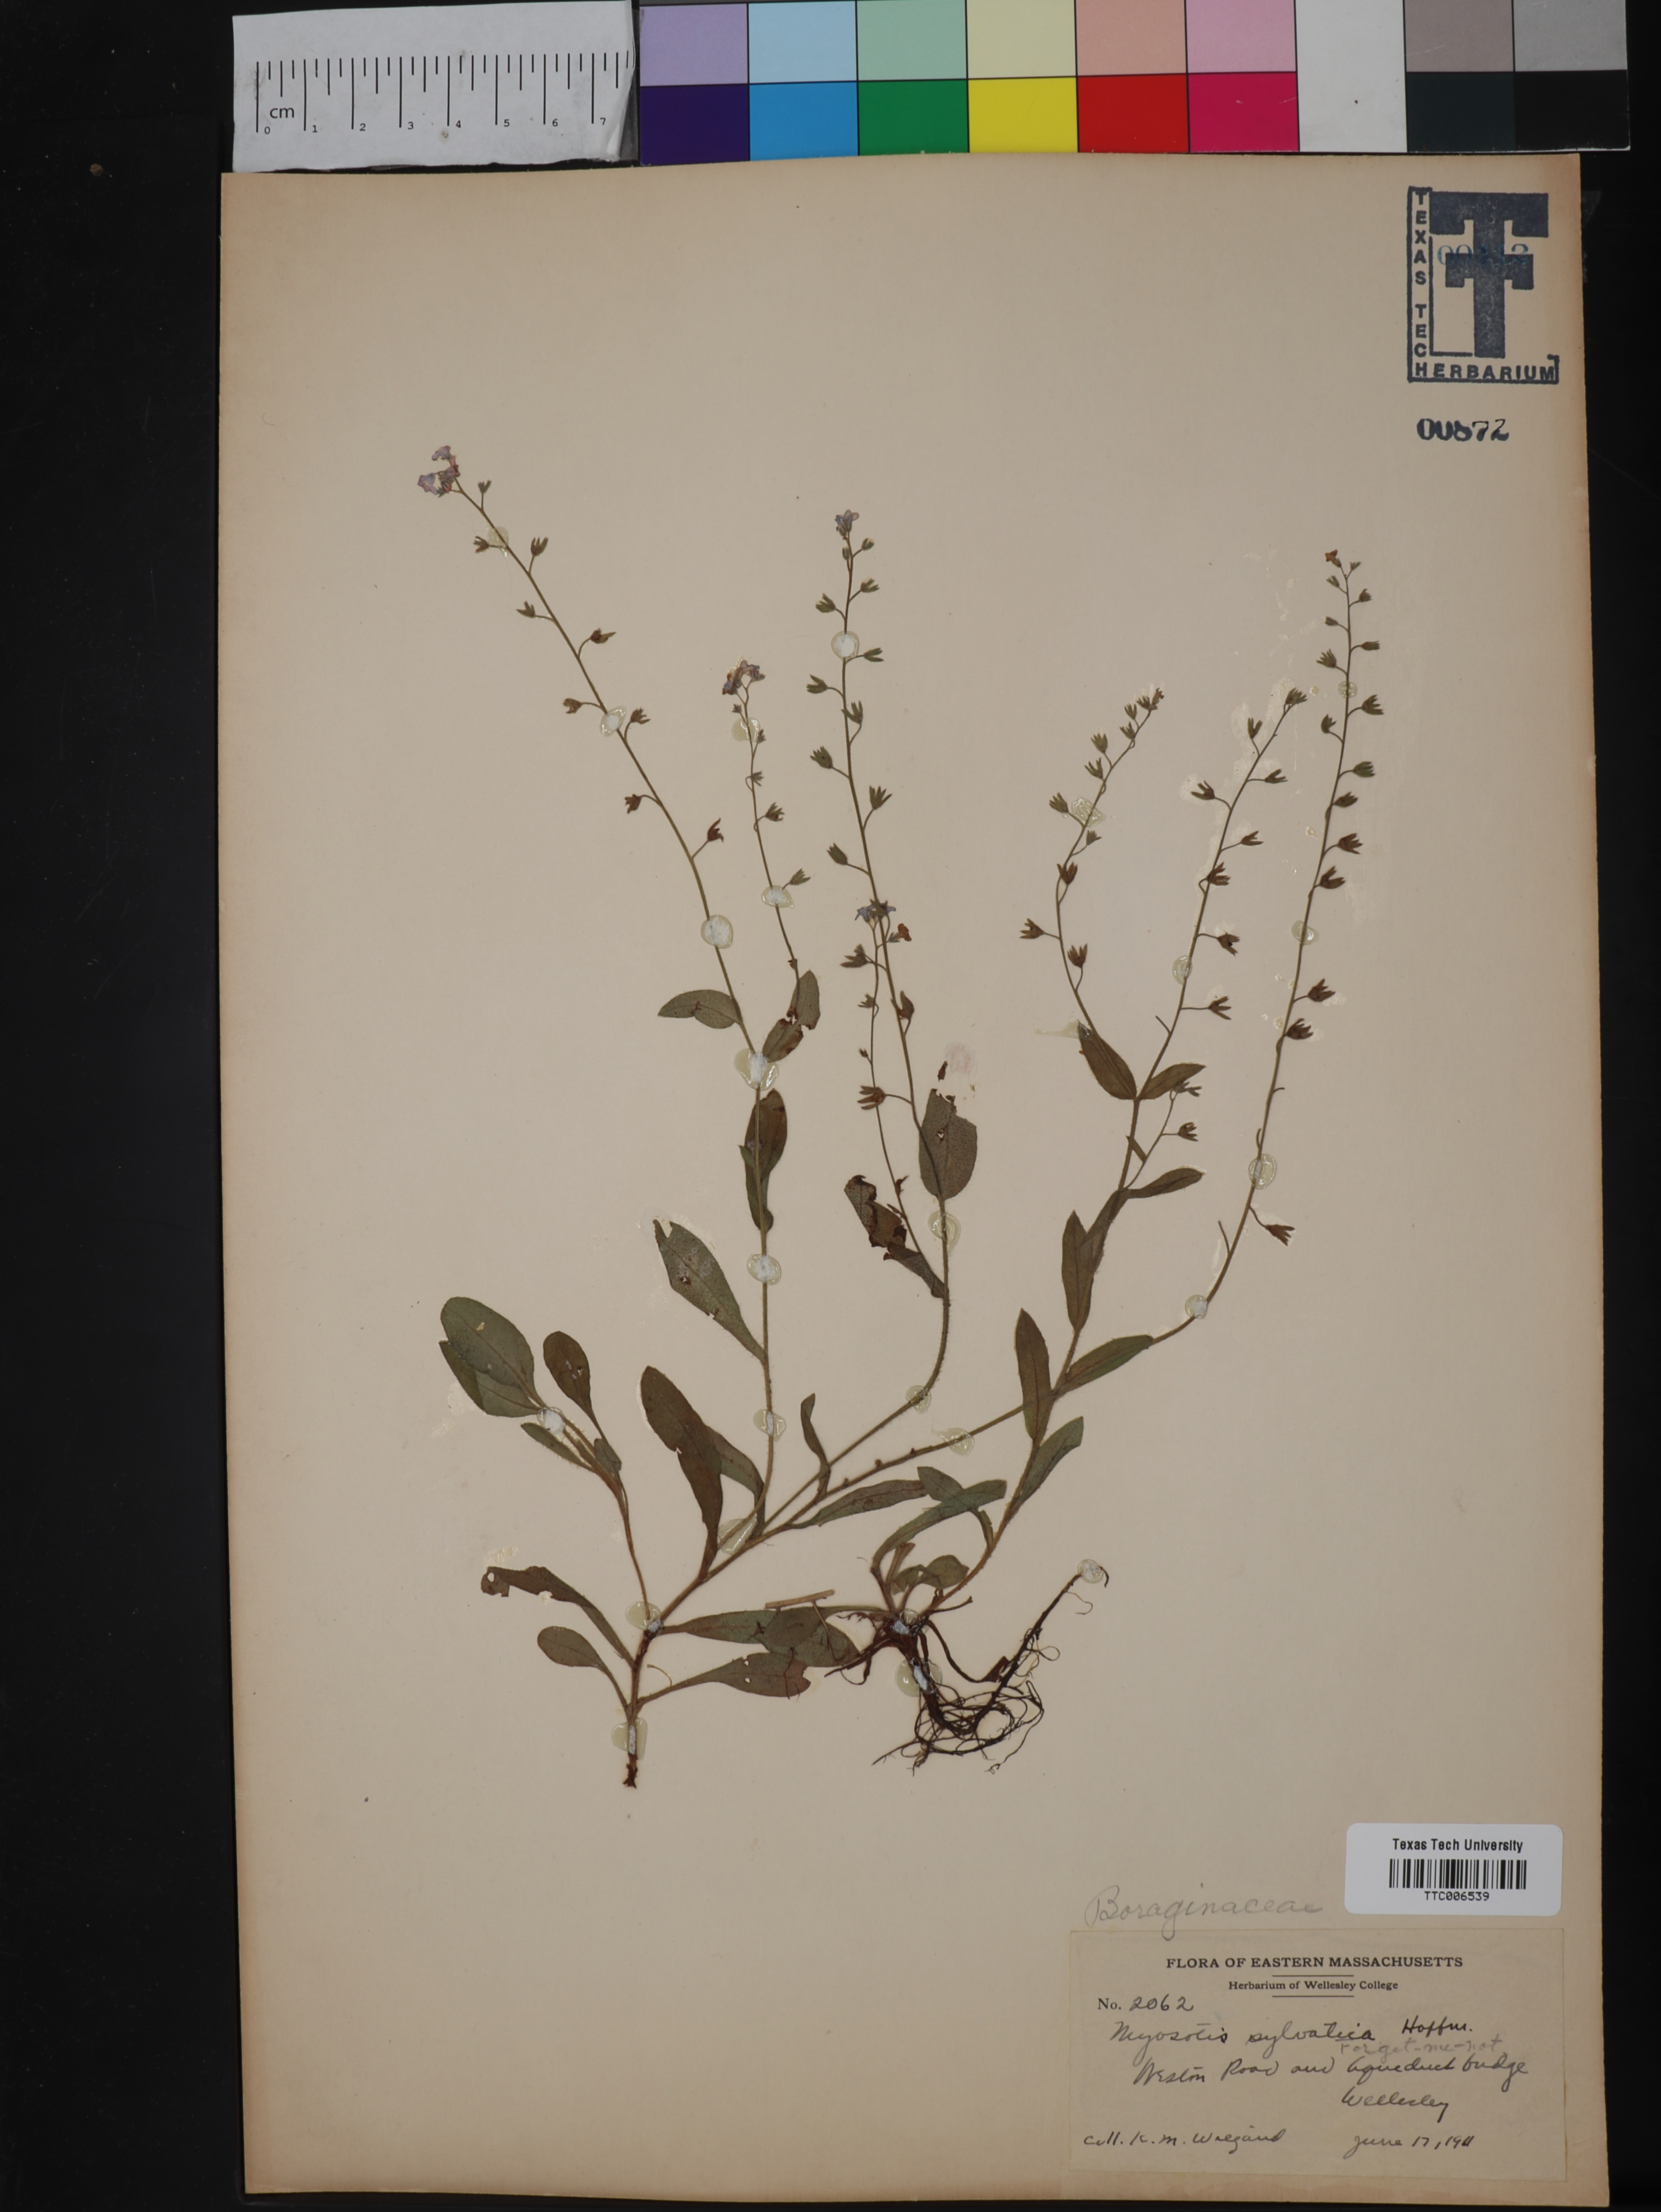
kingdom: Plantae
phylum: Tracheophyta
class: Magnoliopsida
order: Boraginales
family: Boraginaceae
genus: Myosotis
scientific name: Myosotis sylvatica
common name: Wood forget-me-not
